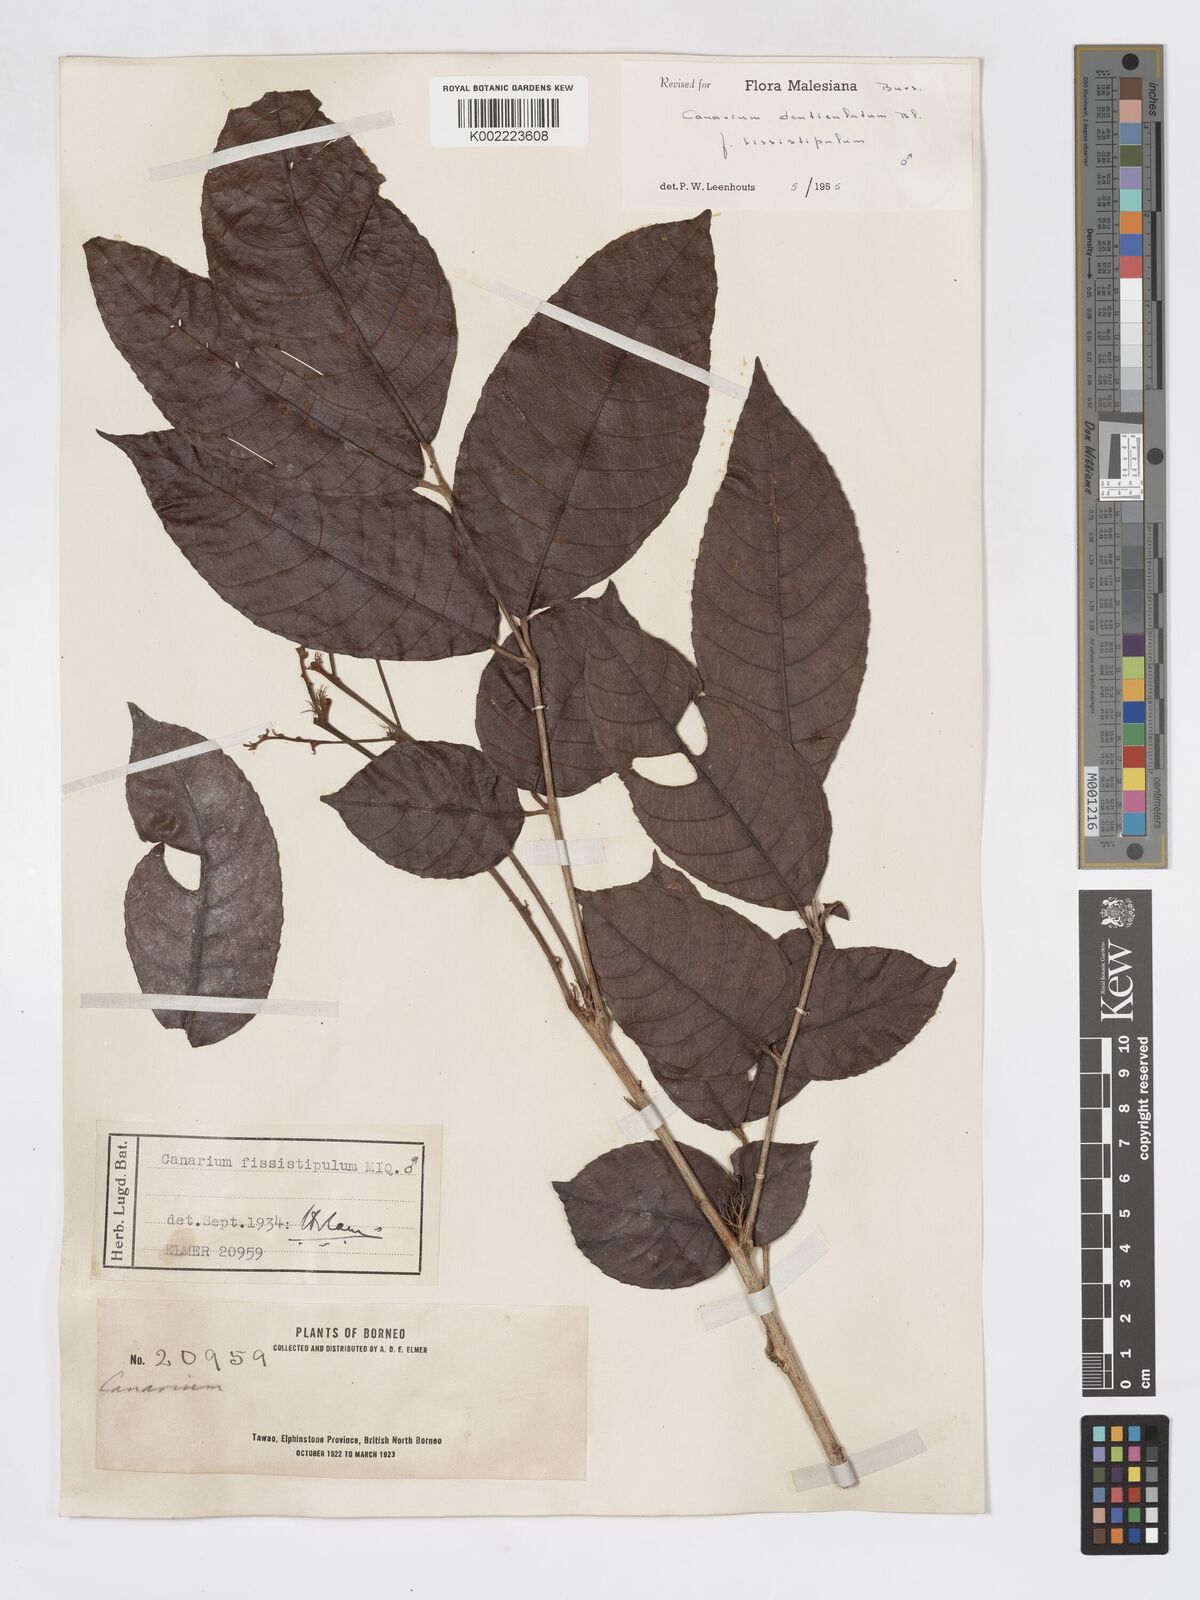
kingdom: Plantae
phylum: Tracheophyta
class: Magnoliopsida
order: Sapindales
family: Burseraceae
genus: Canarium
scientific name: Canarium denticulatum
